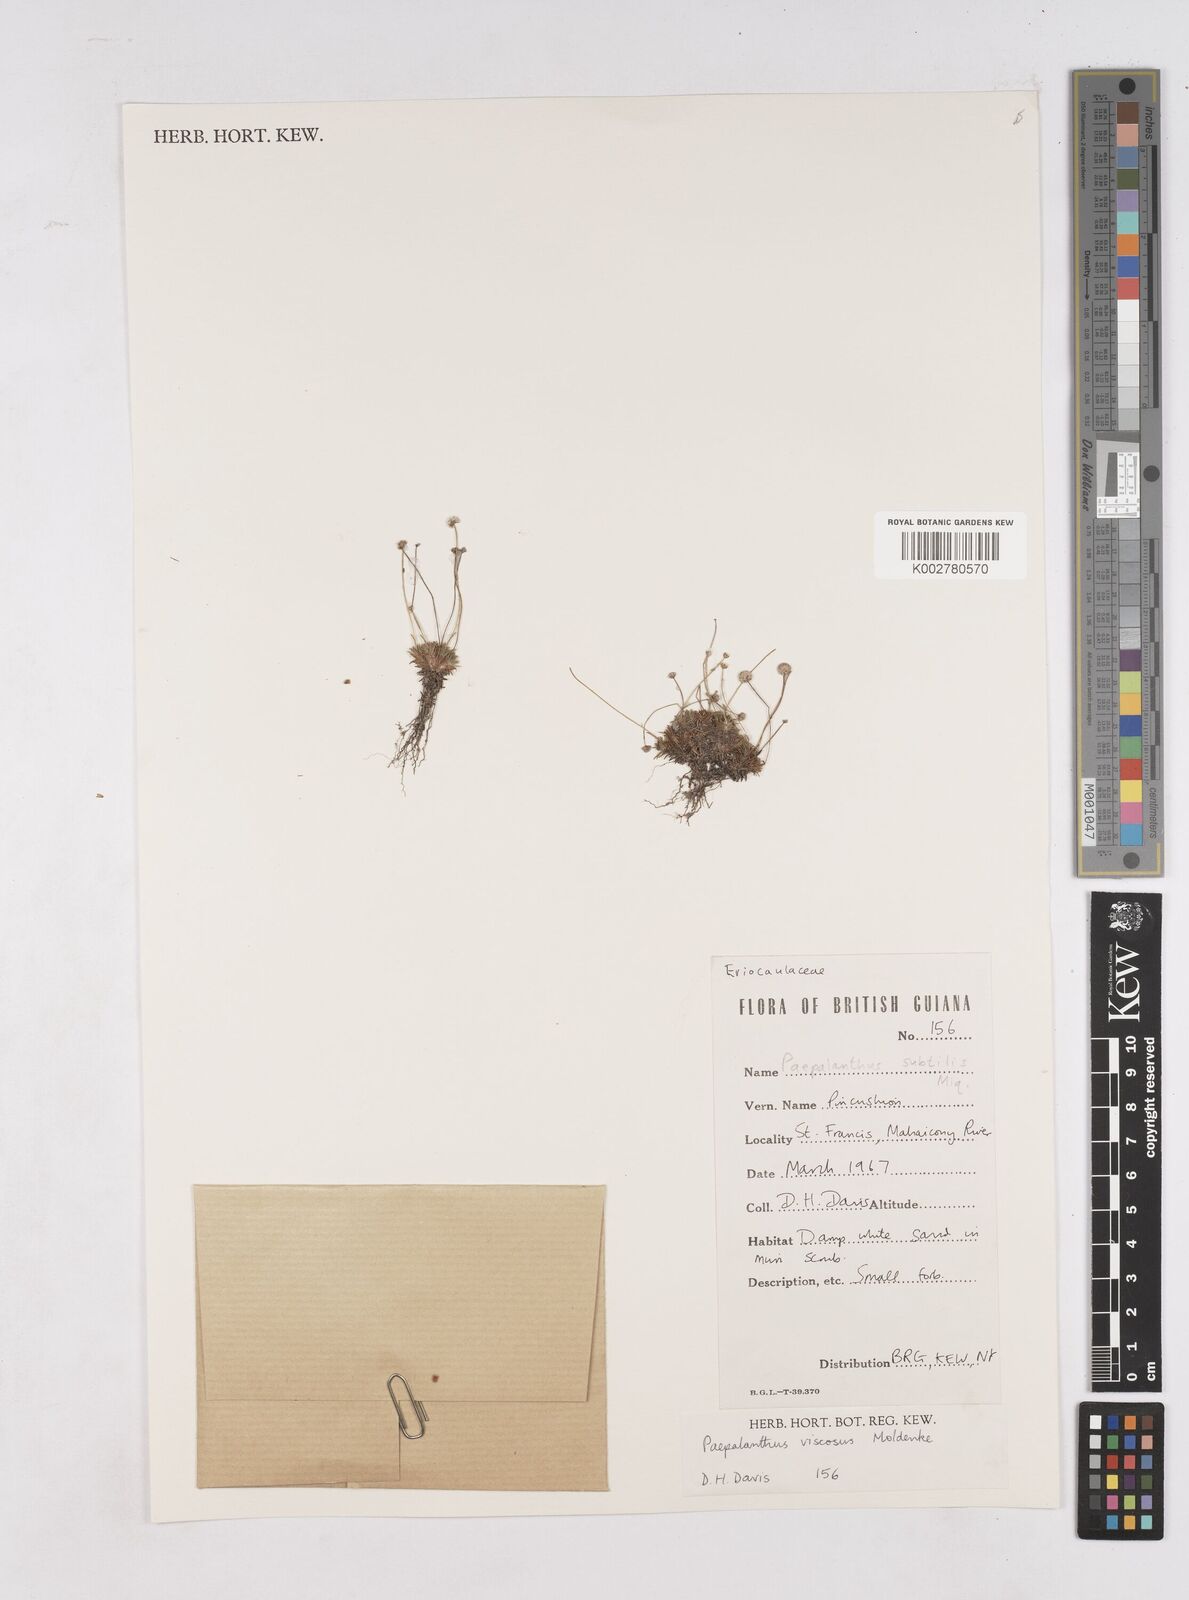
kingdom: Plantae
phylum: Tracheophyta
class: Liliopsida
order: Poales
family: Eriocaulaceae
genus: Paepalanthus
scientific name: Paepalanthus polytrichoides
